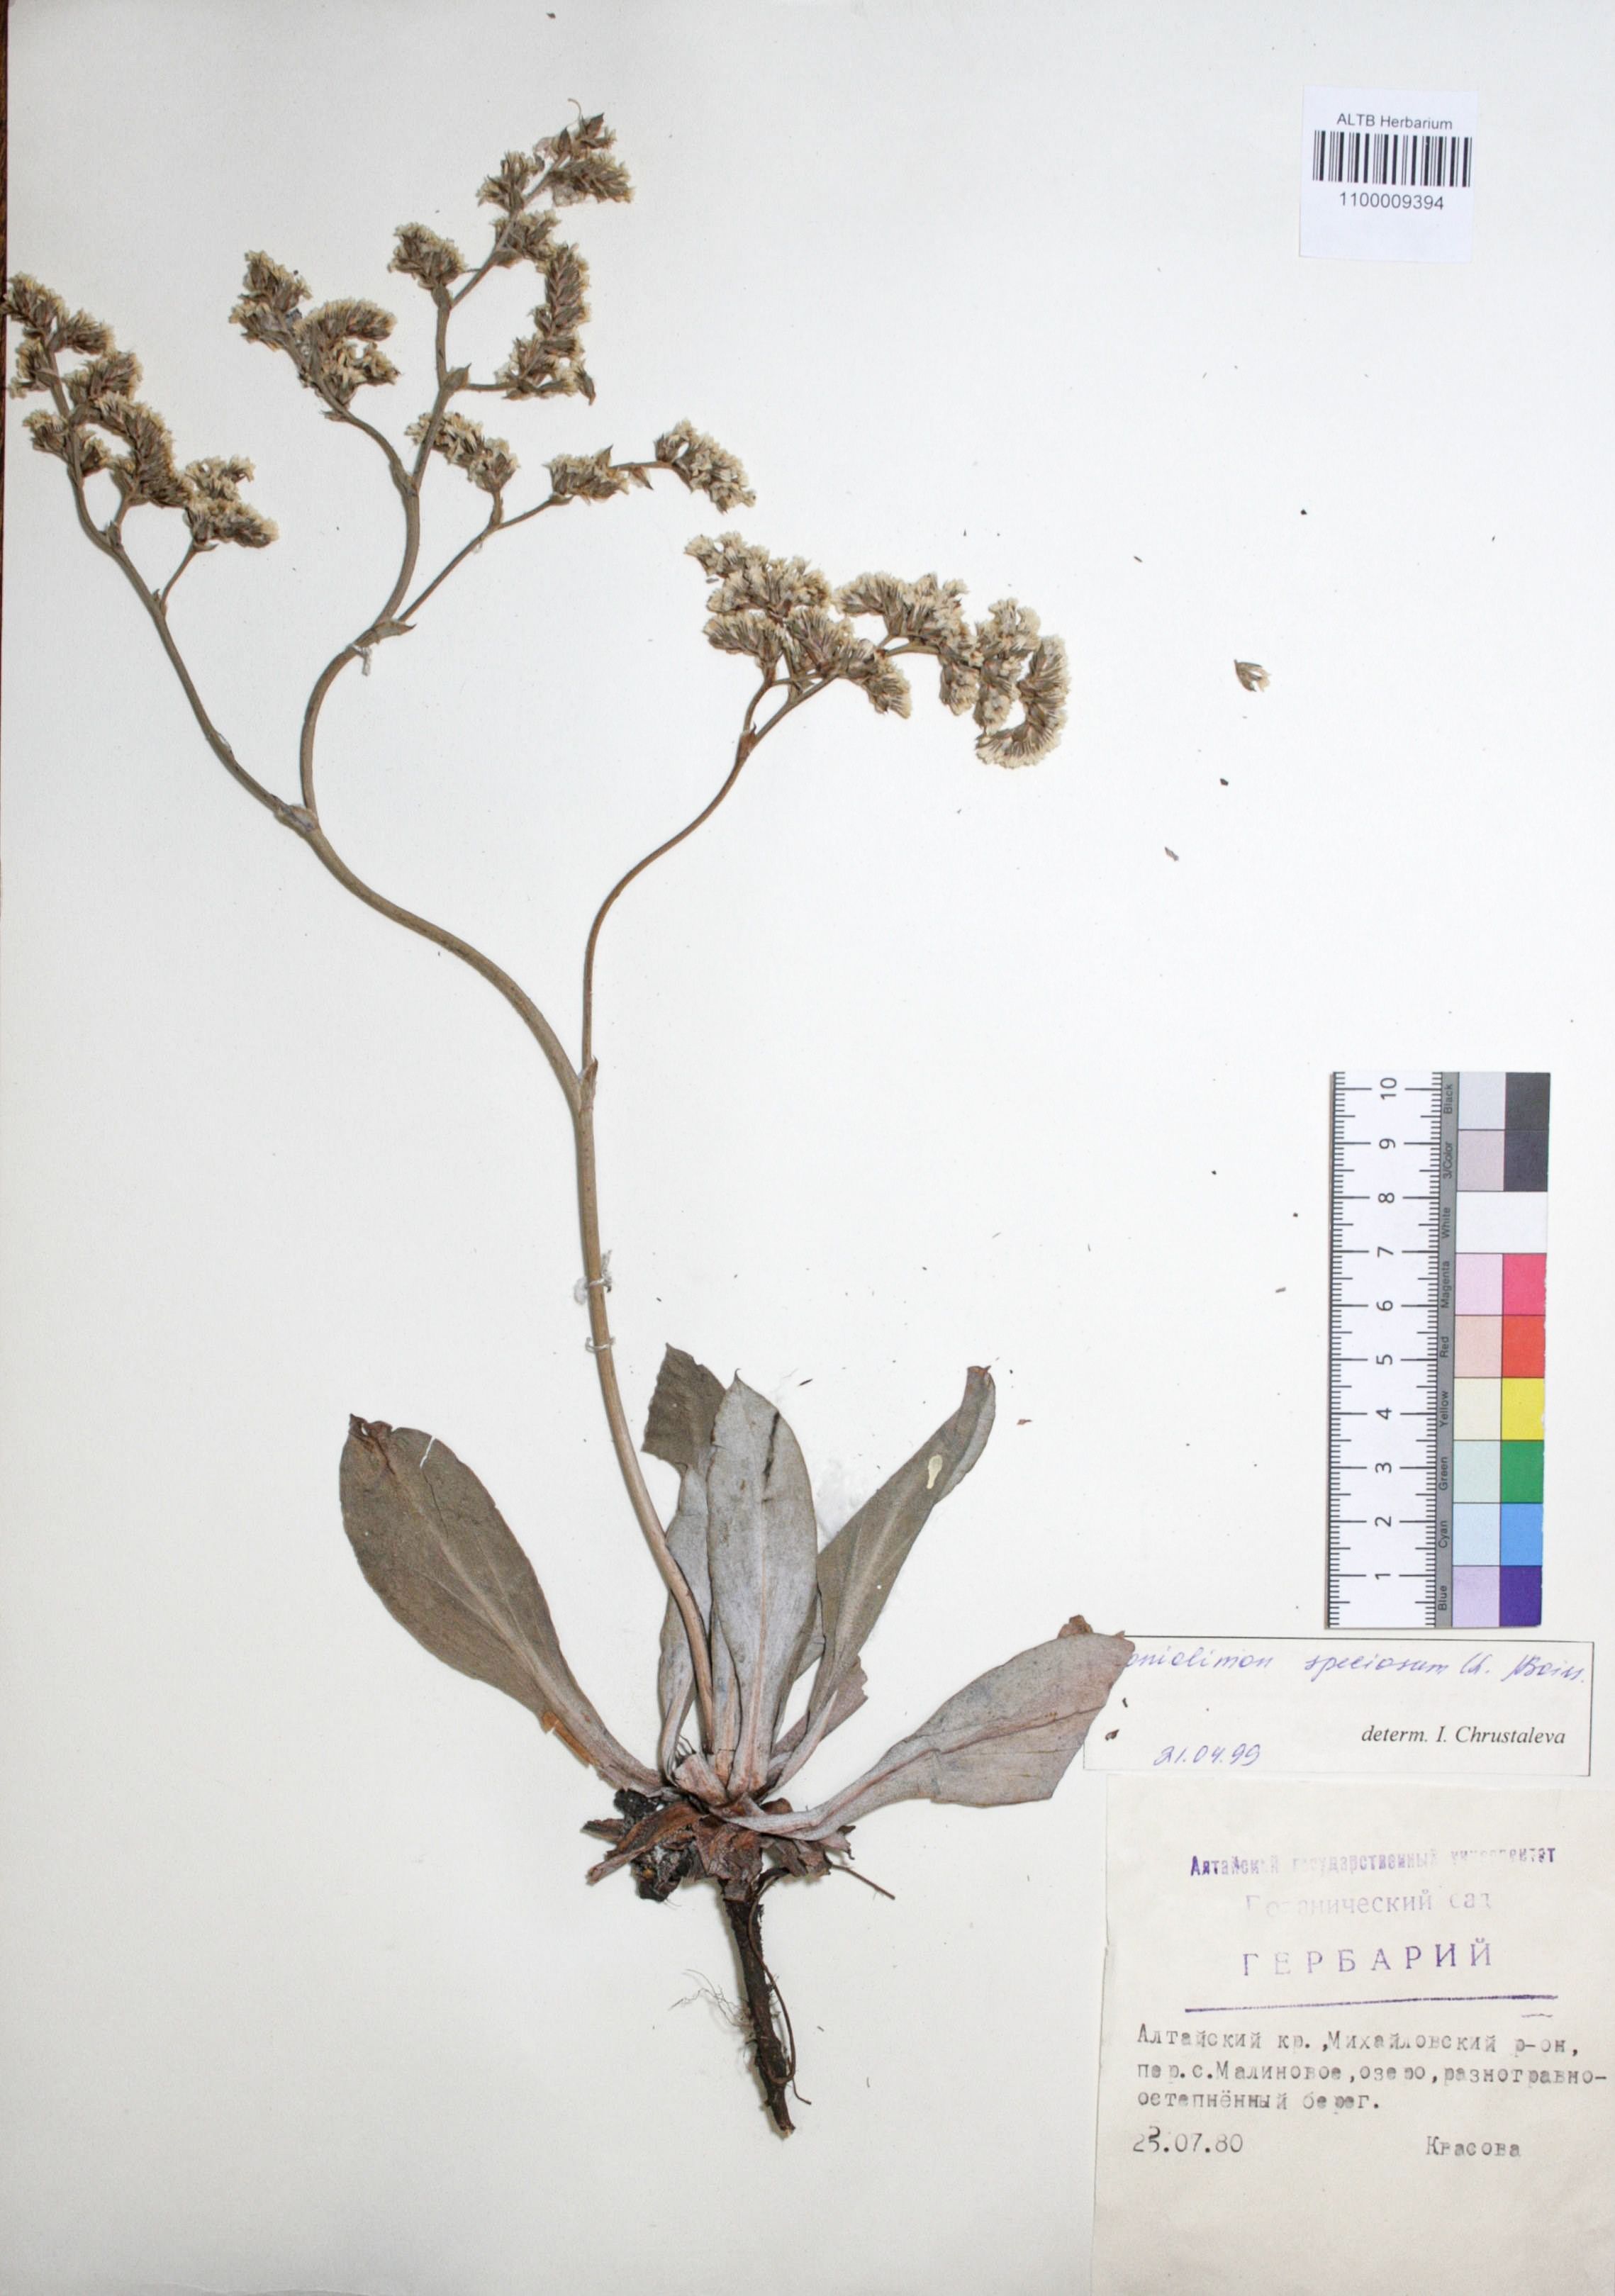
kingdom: Plantae
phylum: Tracheophyta
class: Magnoliopsida
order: Caryophyllales
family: Plumbaginaceae
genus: Goniolimon
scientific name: Goniolimon speciosum
